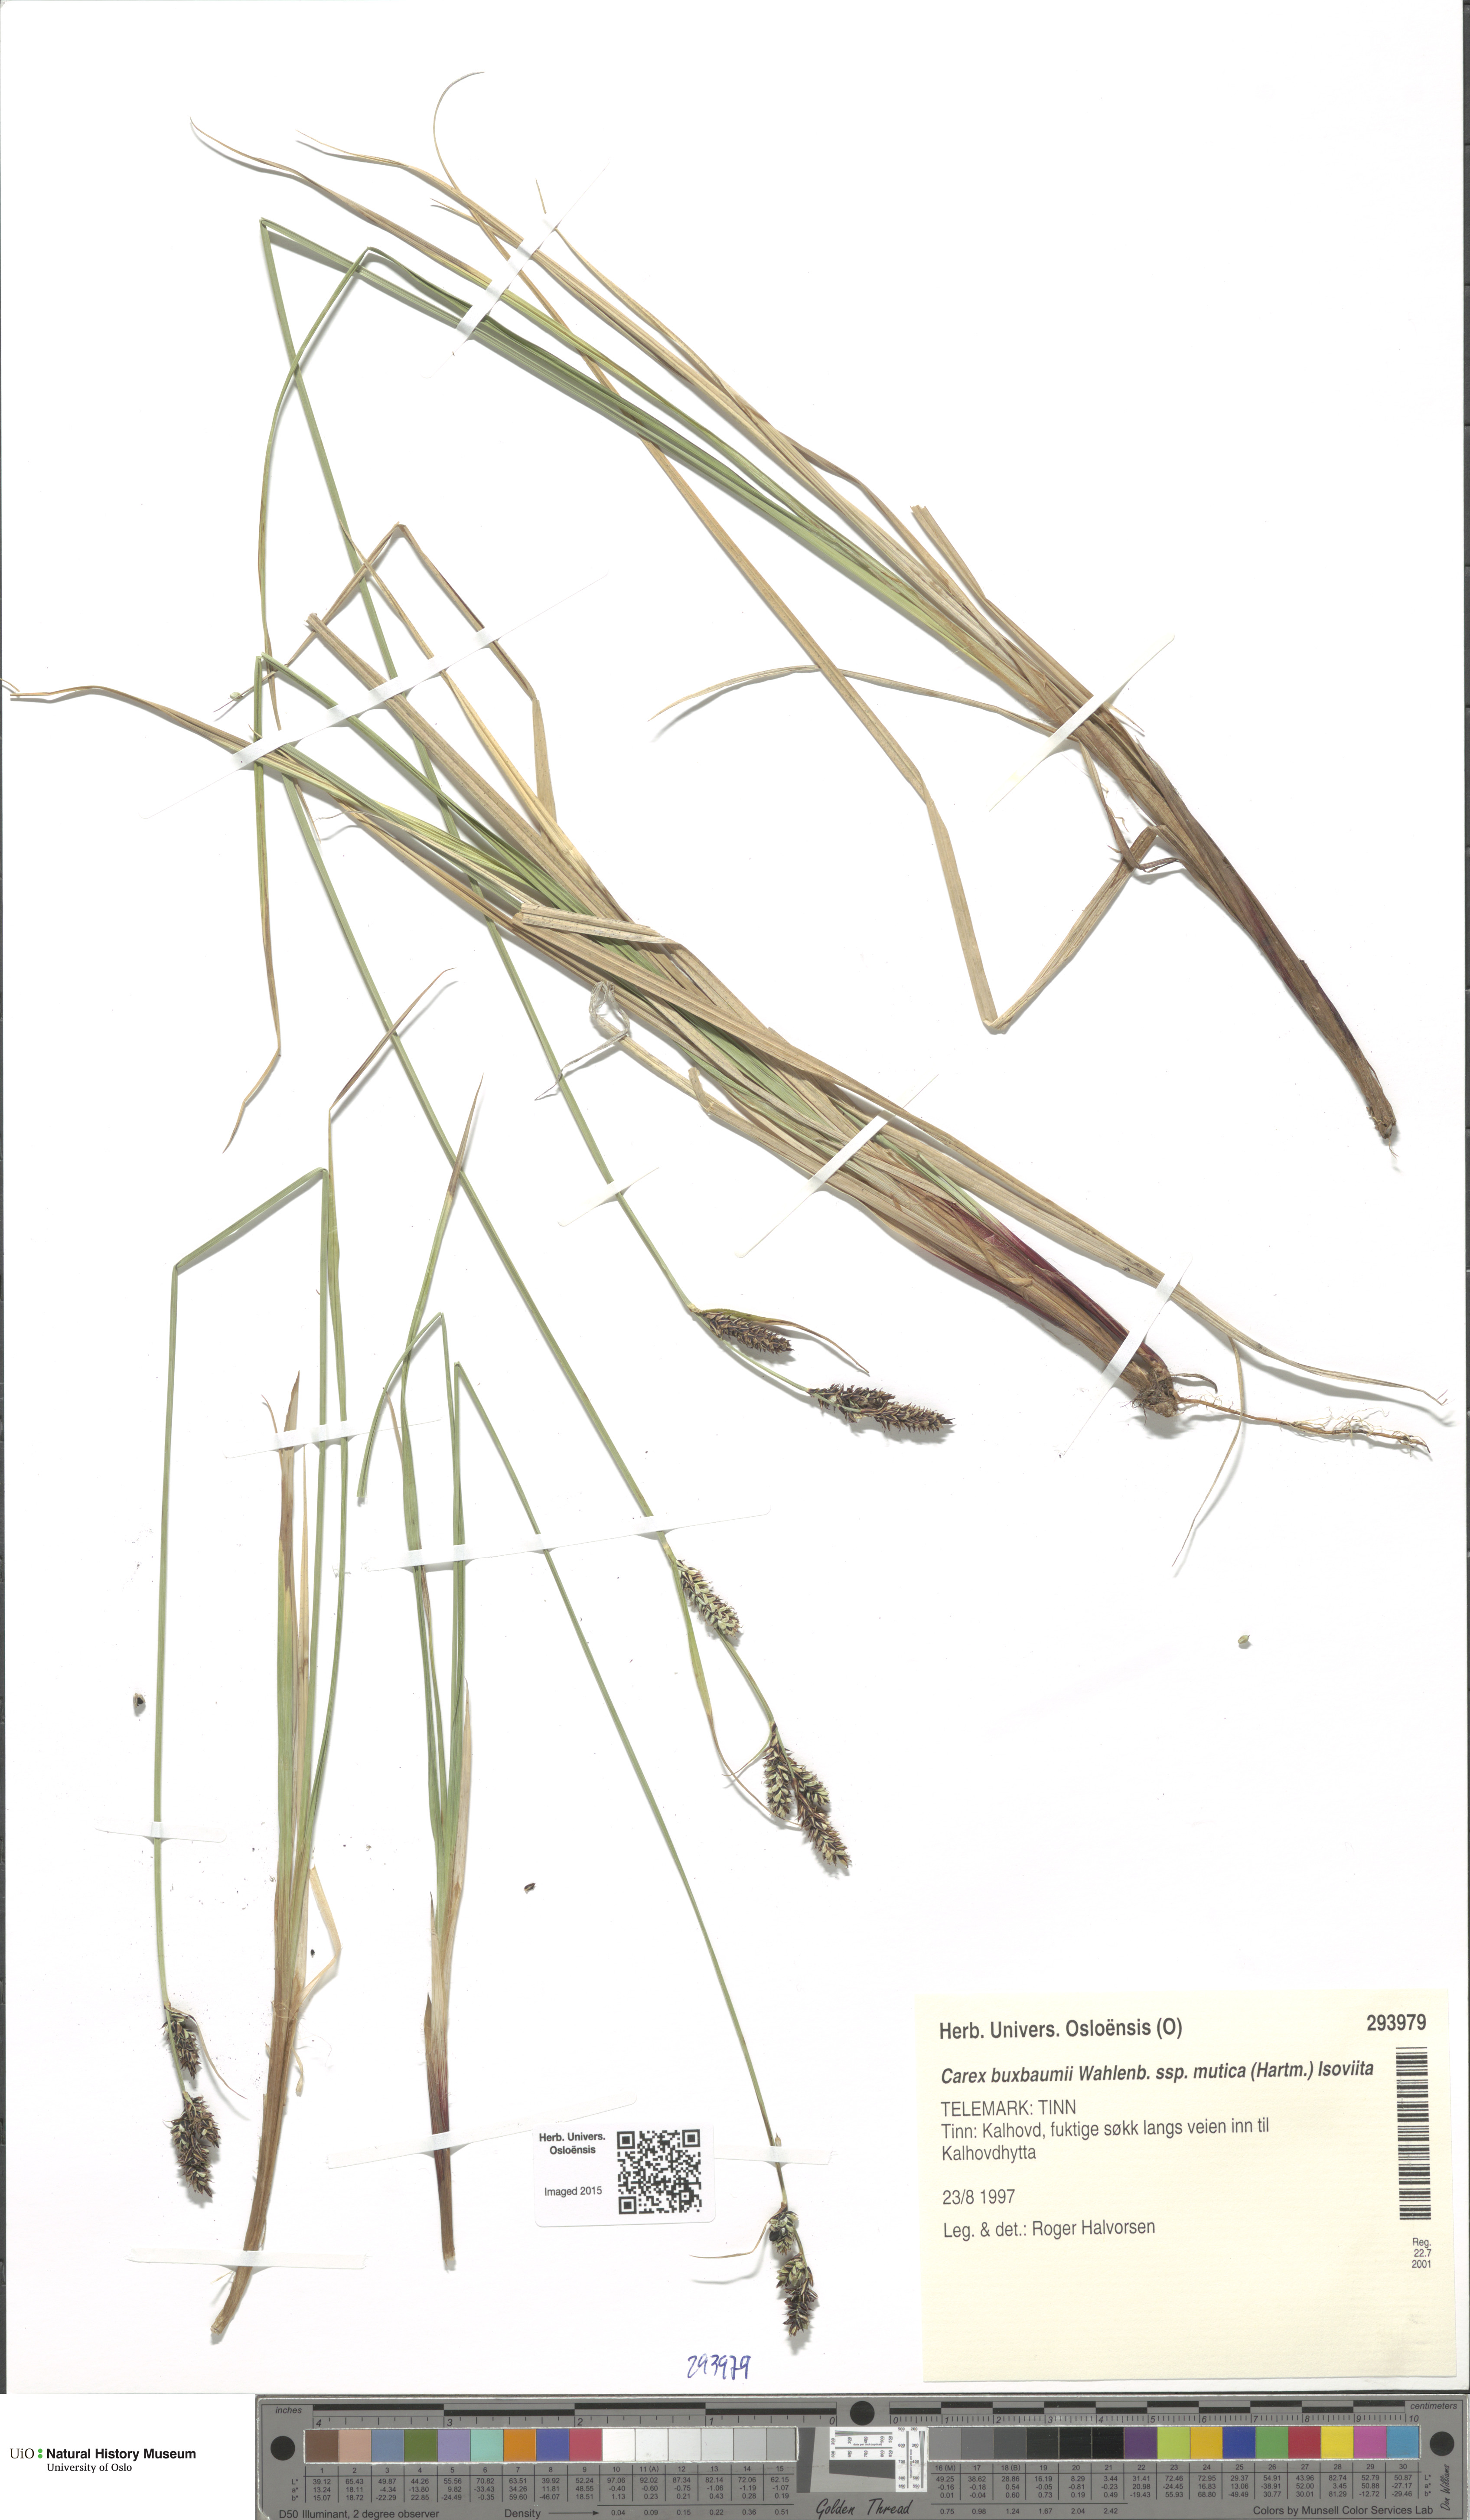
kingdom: Plantae
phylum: Tracheophyta
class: Liliopsida
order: Poales
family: Cyperaceae
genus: Carex
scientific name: Carex adelostoma
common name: Circumpolar sedge
